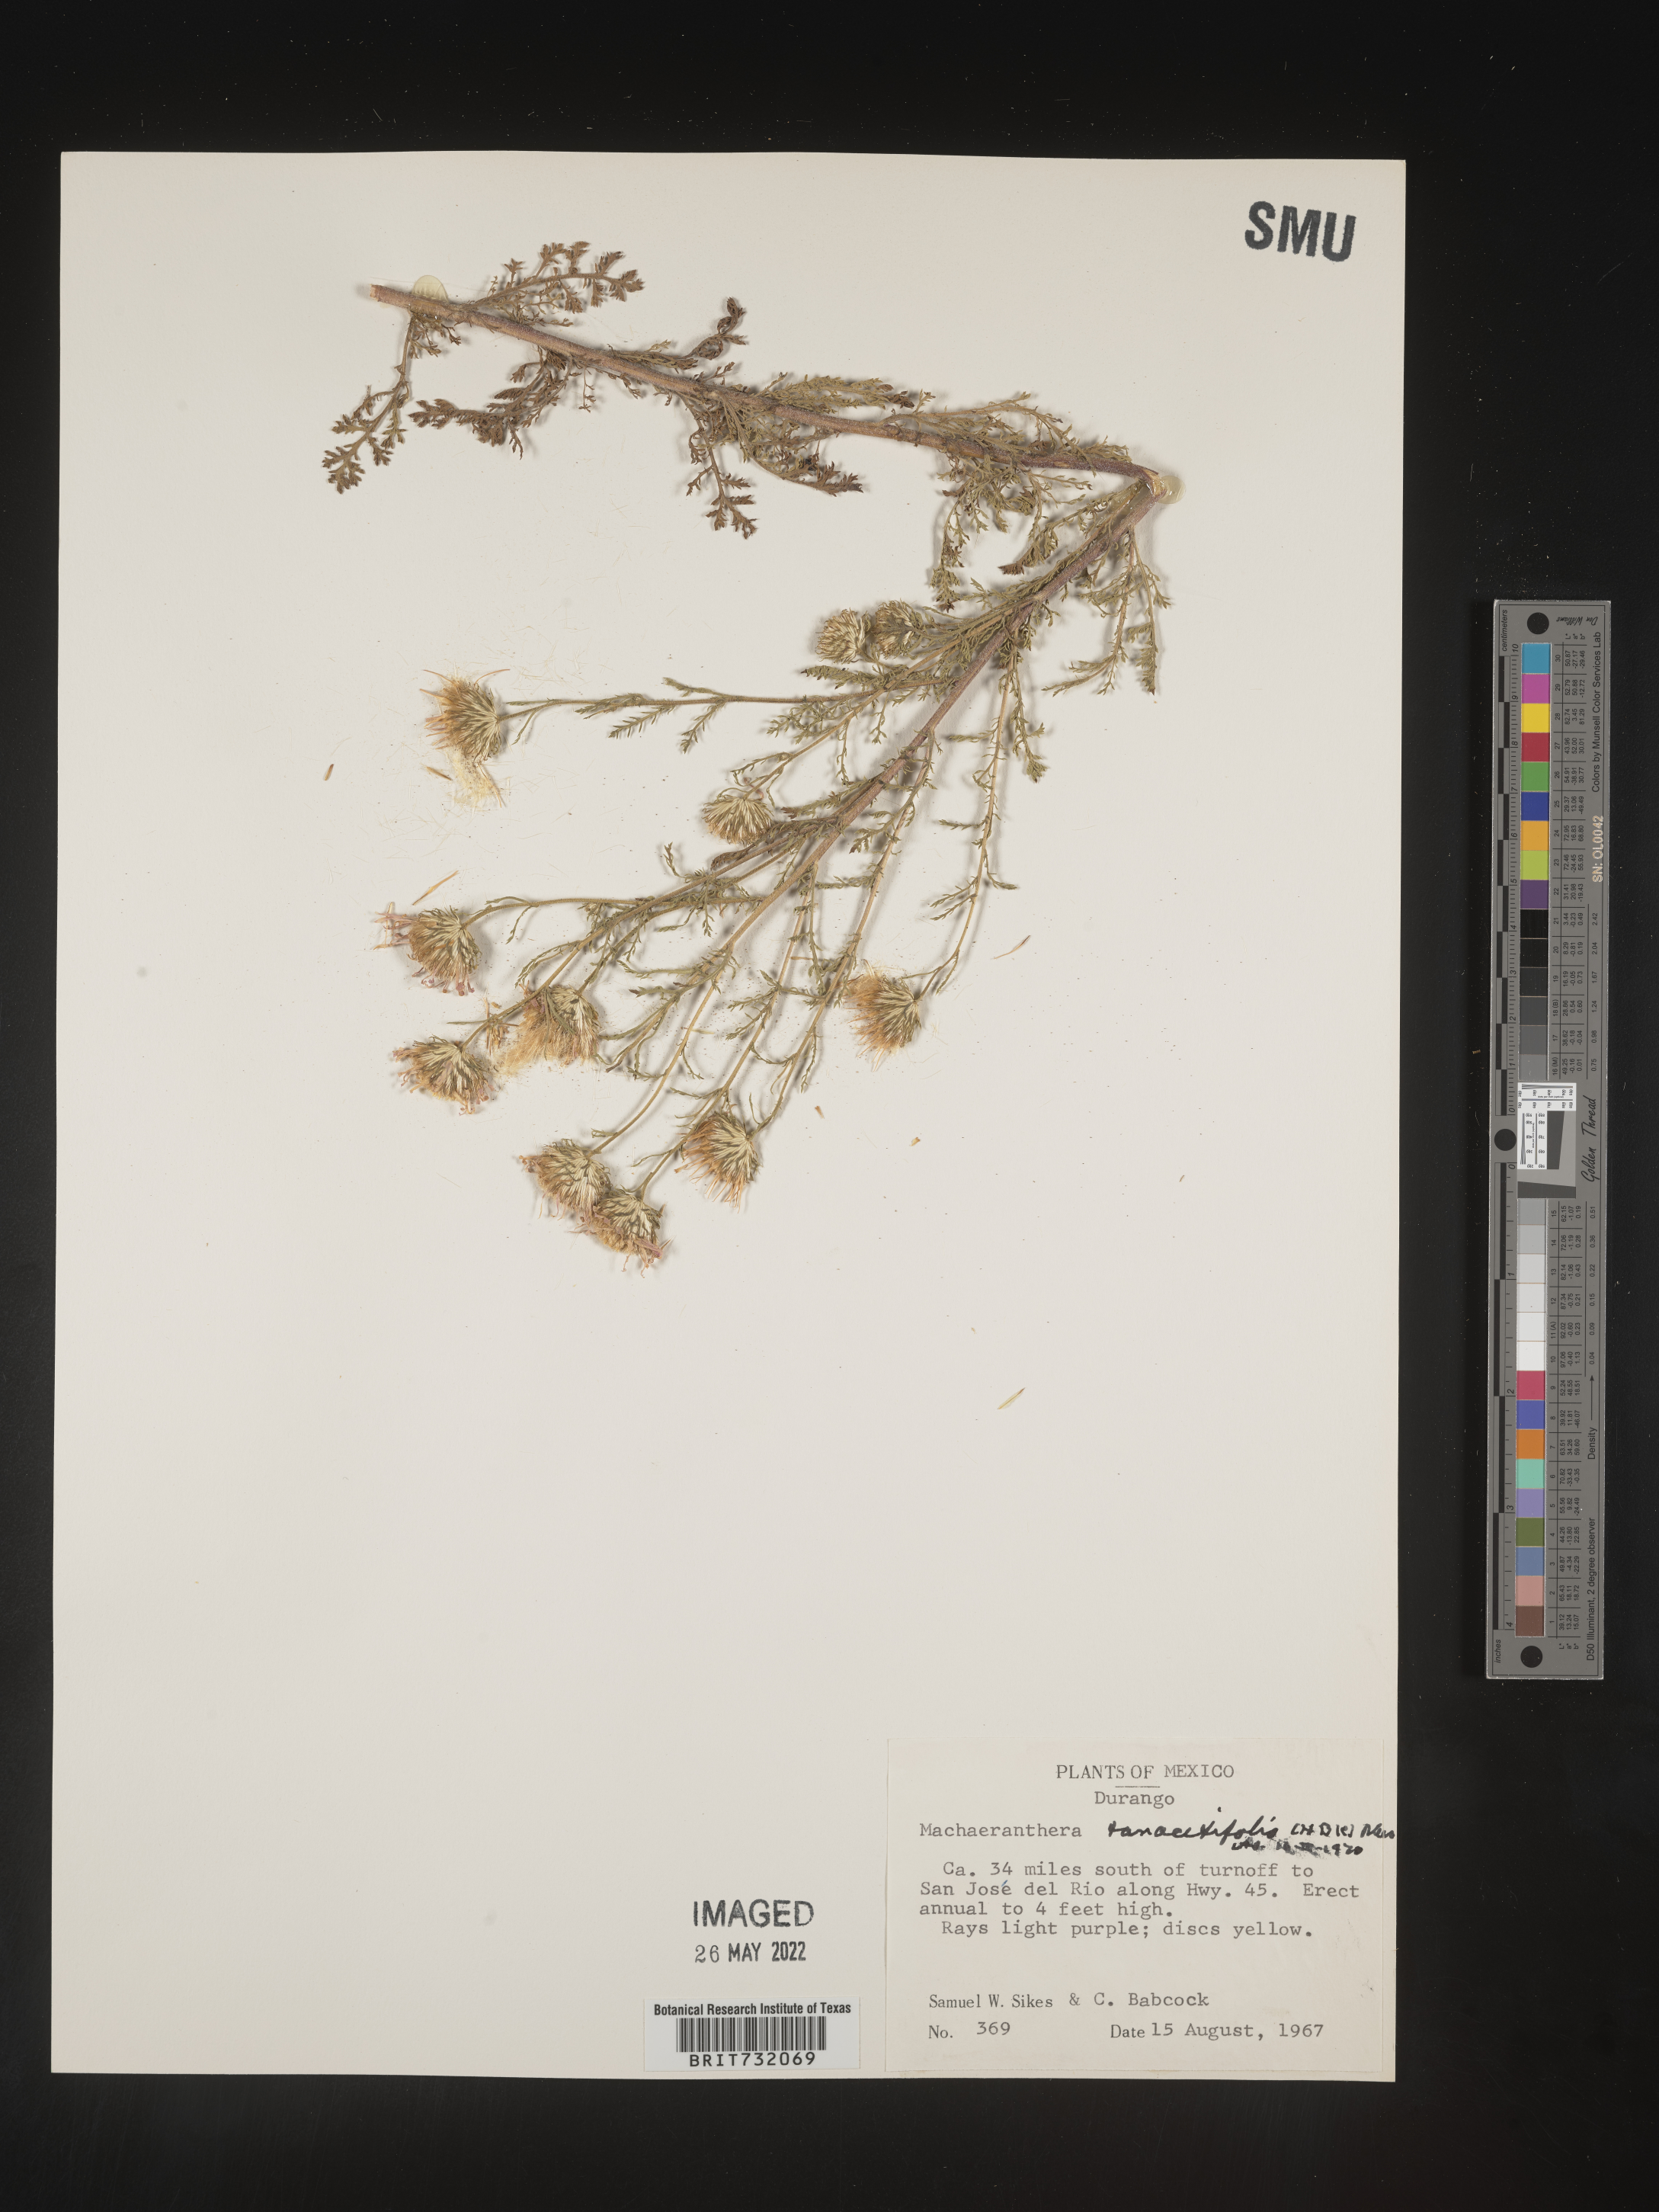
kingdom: Plantae
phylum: Tracheophyta
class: Magnoliopsida
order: Asterales
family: Asteraceae
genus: Machaeranthera
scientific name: Machaeranthera tanacetifolia
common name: Tansy-aster
